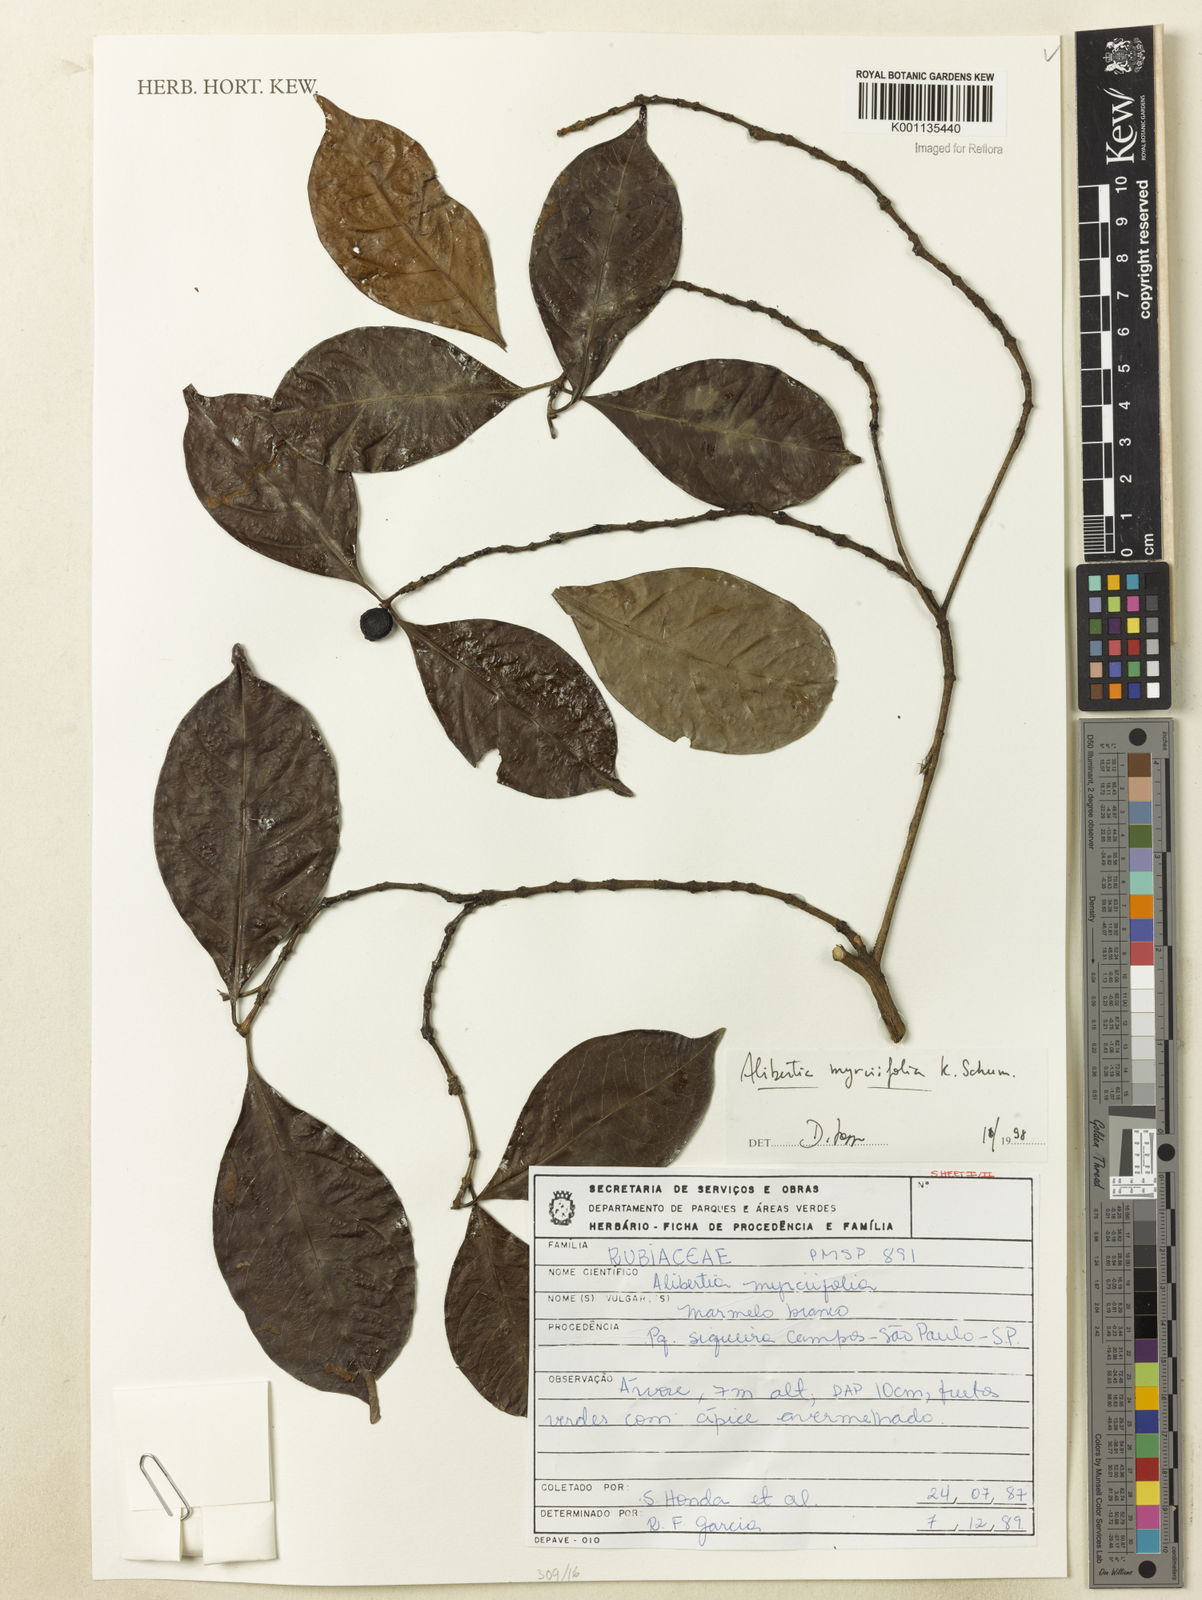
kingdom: Plantae
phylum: Tracheophyta
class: Magnoliopsida
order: Gentianales
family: Rubiaceae
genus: Cordiera
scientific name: Cordiera myrciifolia
